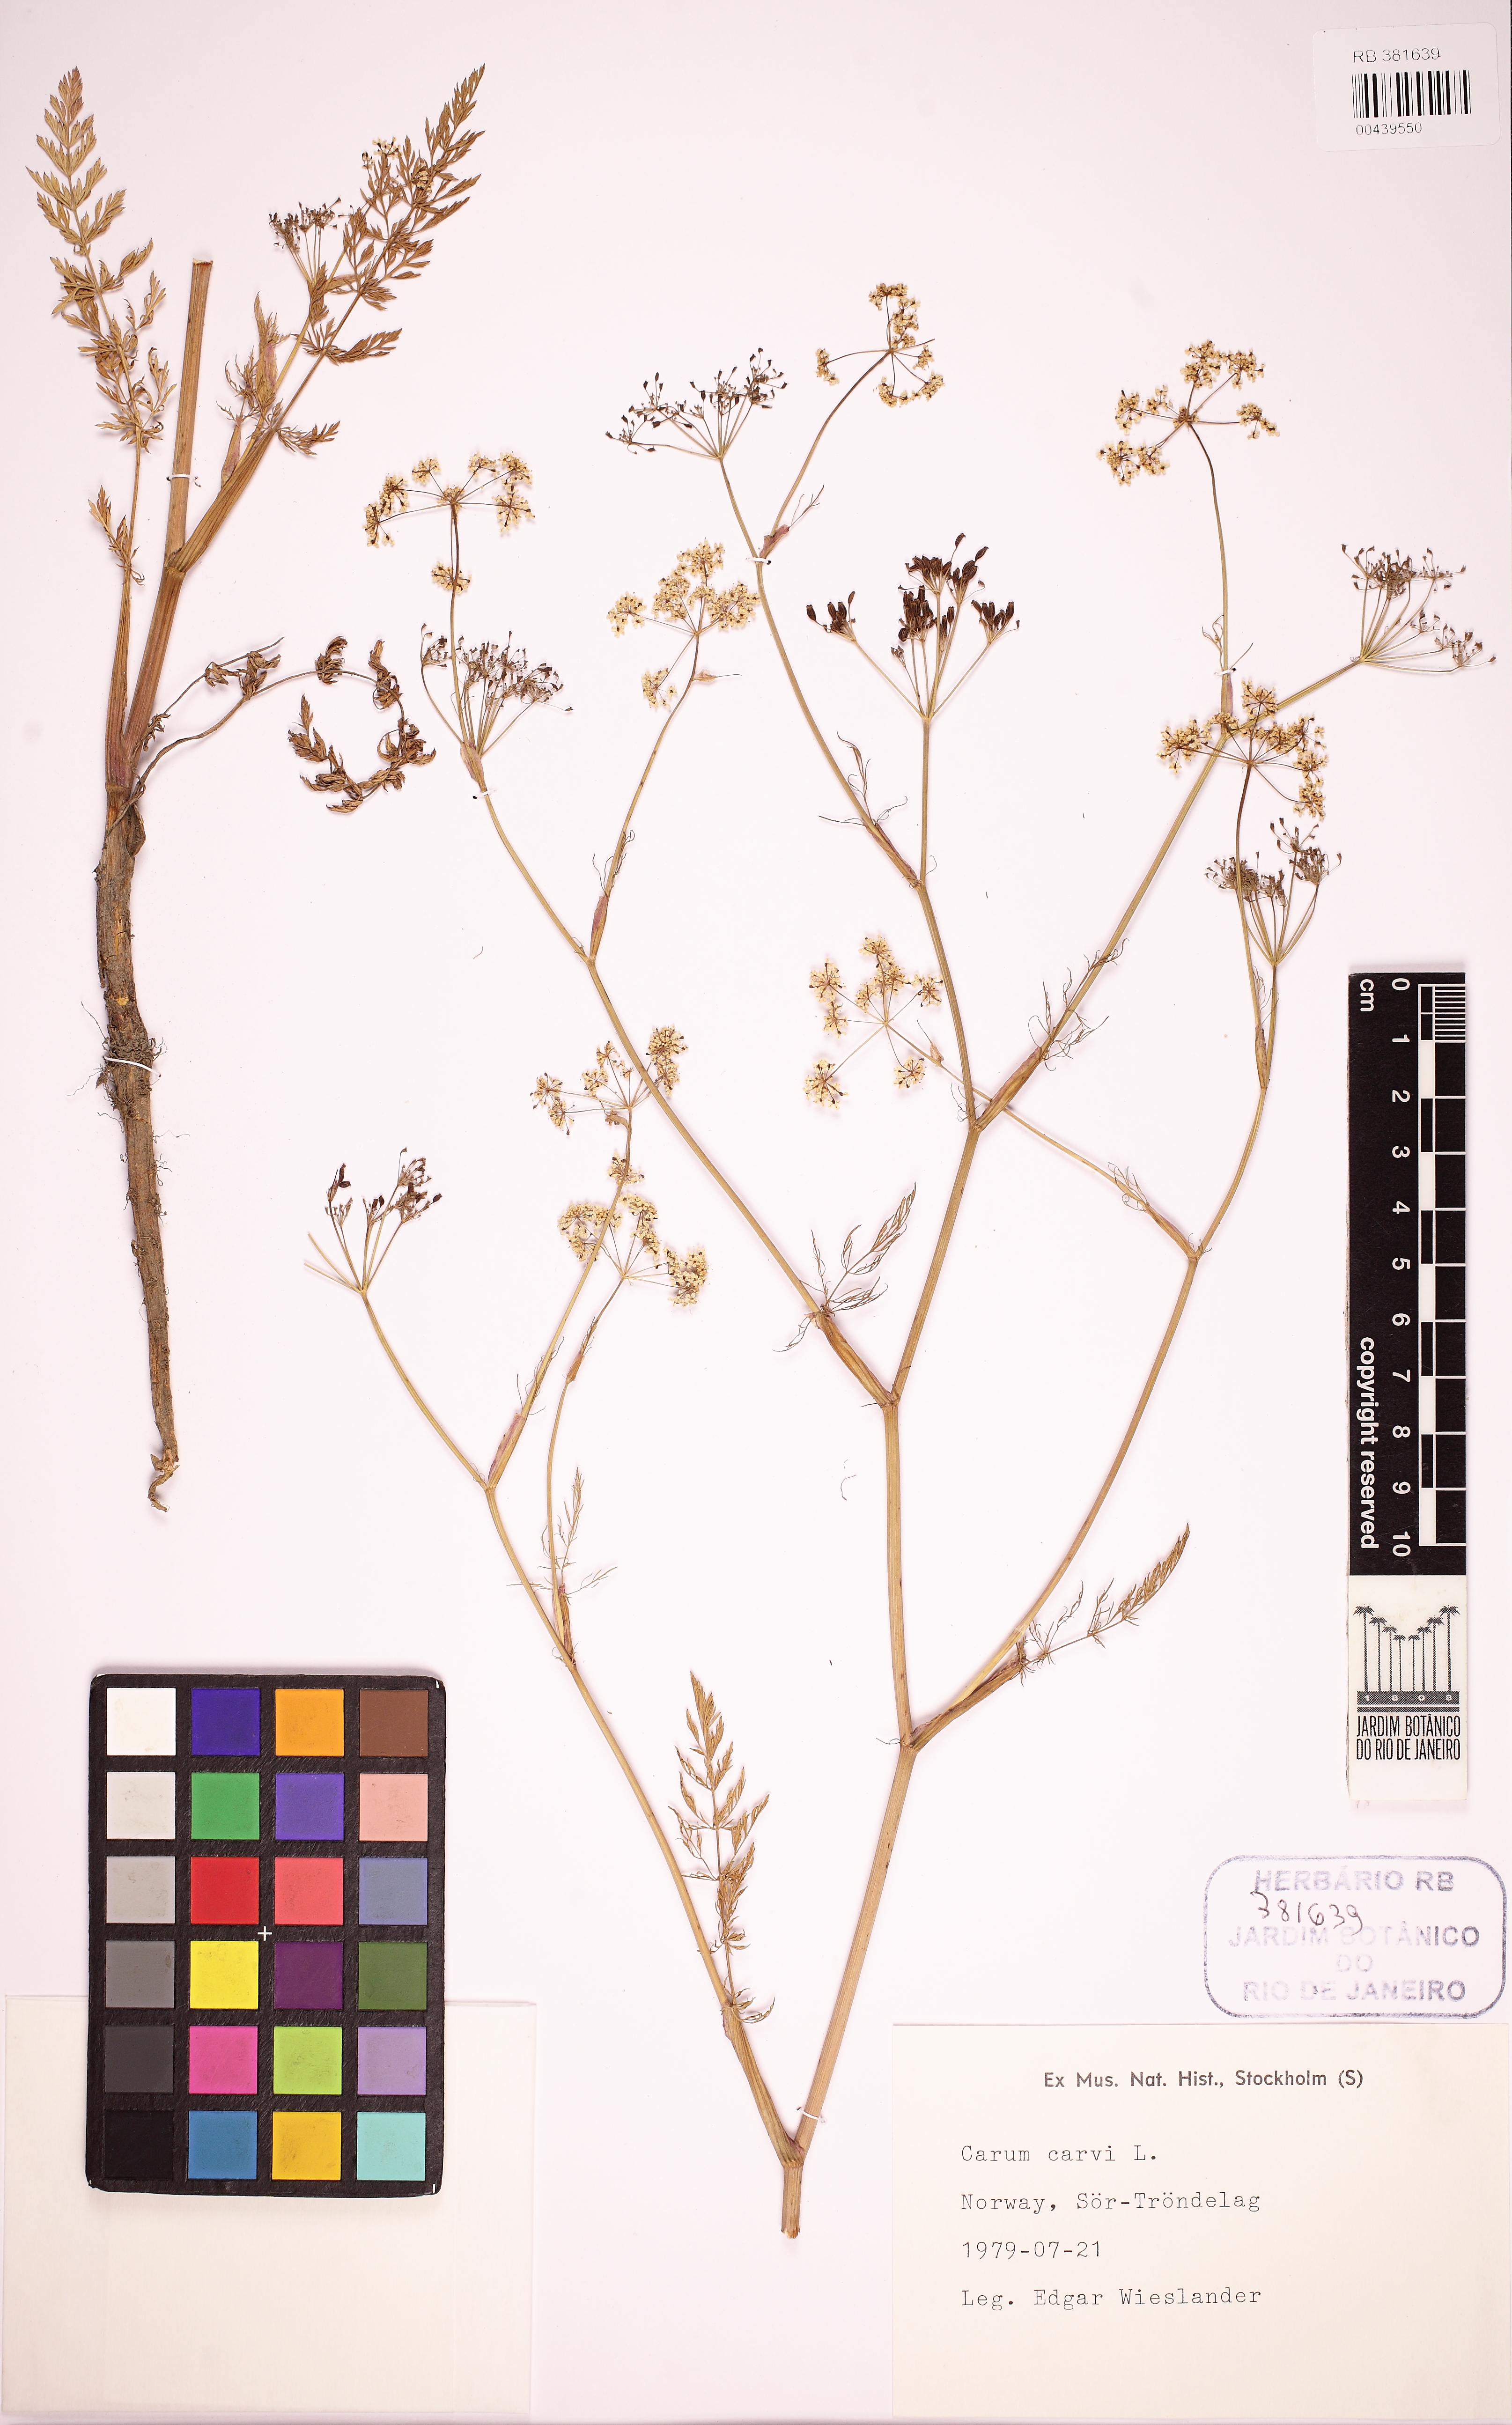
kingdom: Plantae
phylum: Tracheophyta
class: Magnoliopsida
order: Apiales
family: Apiaceae
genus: Carum
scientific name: Carum carvi
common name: Caraway
